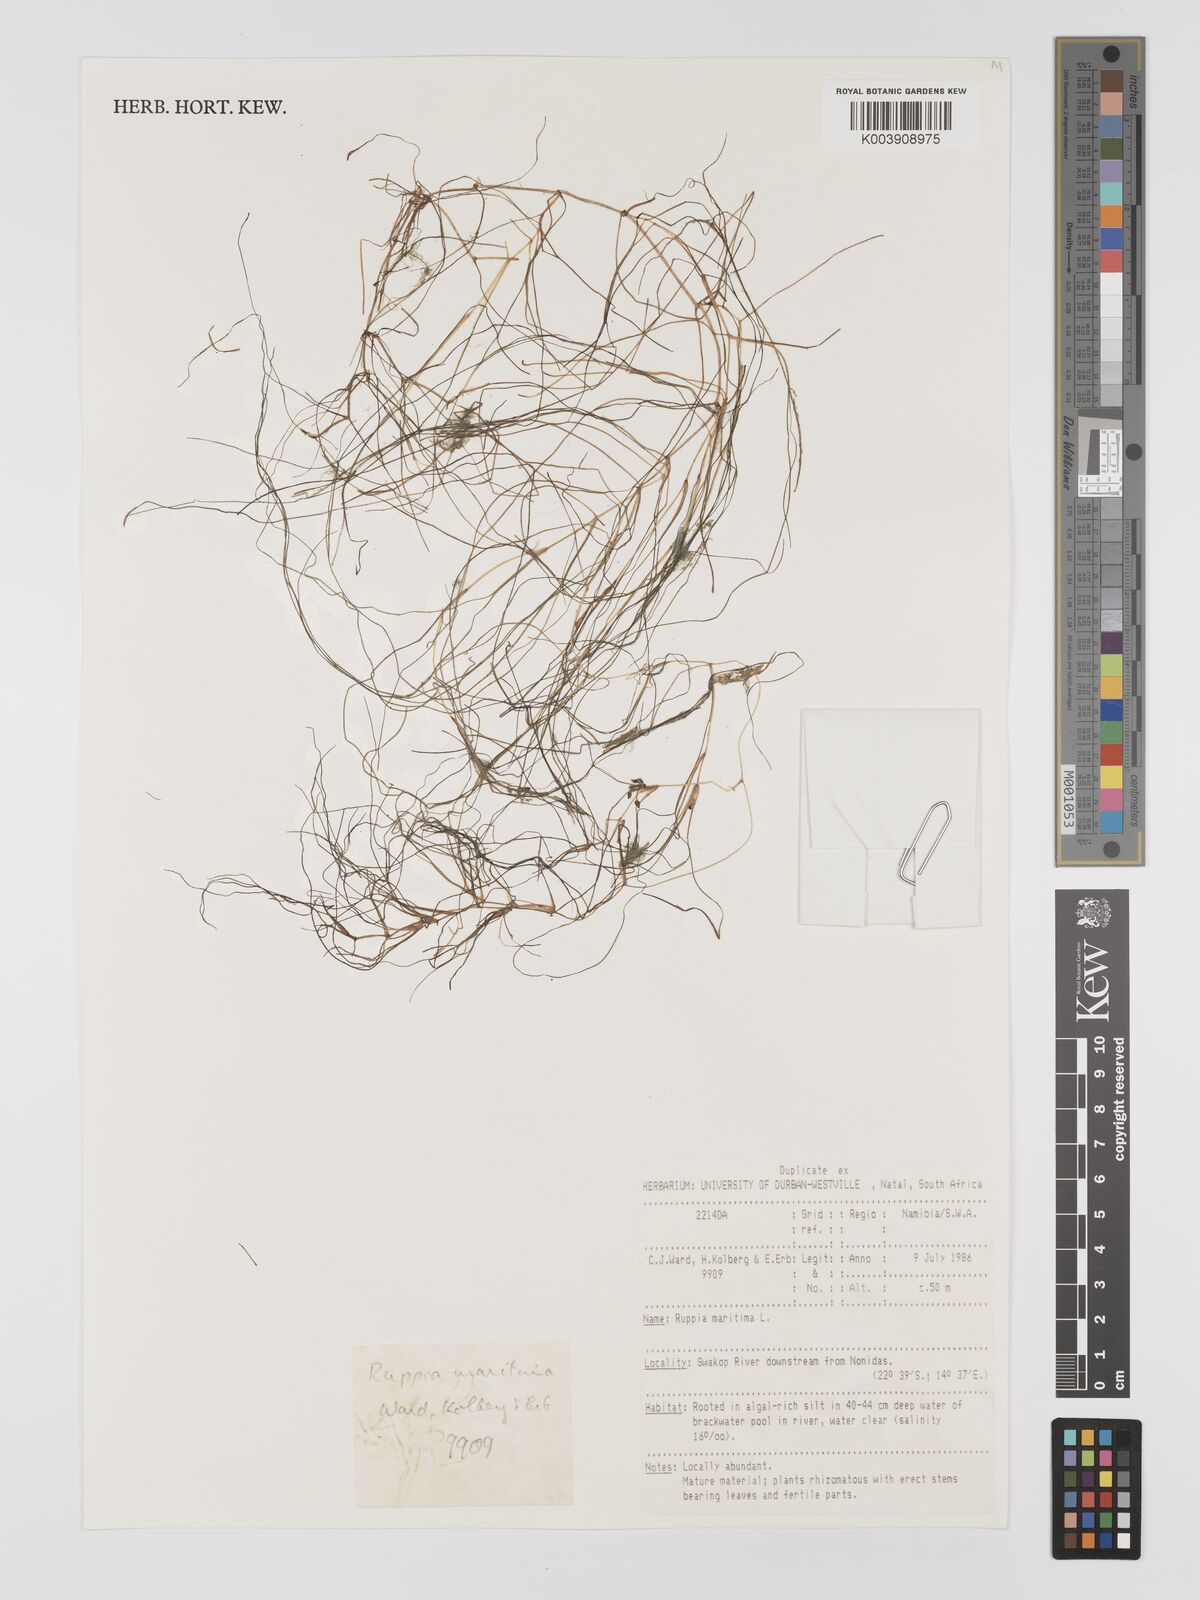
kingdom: Plantae
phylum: Tracheophyta
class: Liliopsida
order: Alismatales
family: Ruppiaceae
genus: Ruppia
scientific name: Ruppia maritima
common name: Beaked tasselweed
